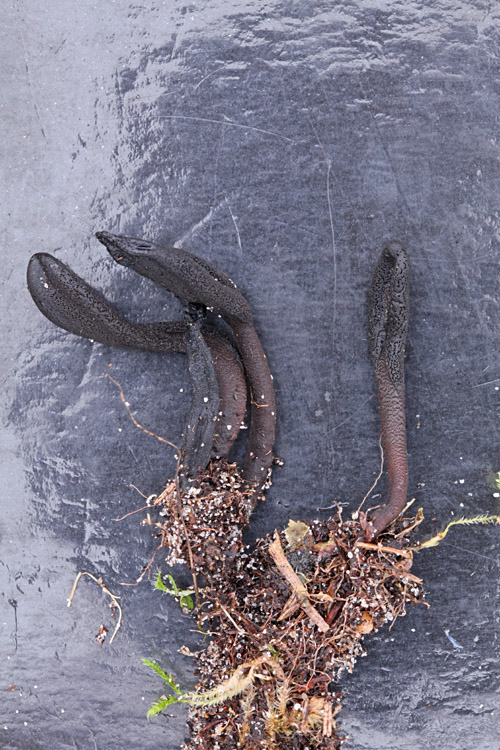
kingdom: Fungi
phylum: Ascomycota
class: Geoglossomycetes
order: Geoglossales
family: Geoglossaceae
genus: Hemileucoglossum
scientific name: Hemileucoglossum elongatum
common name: småsporet jordtunge
